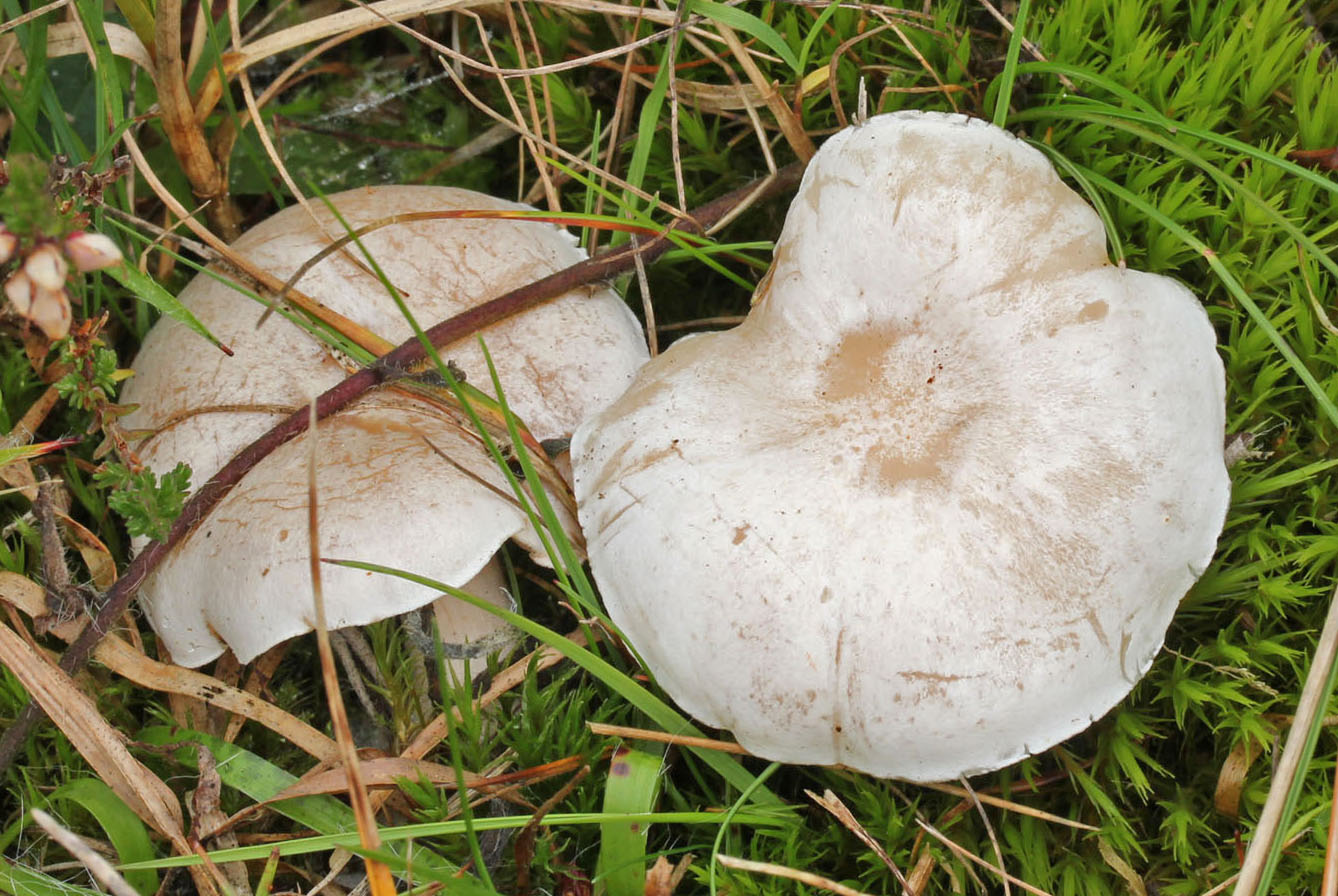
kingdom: Fungi
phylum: Basidiomycota
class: Agaricomycetes
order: Agaricales
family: Tricholomataceae
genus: Clitocybe
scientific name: Clitocybe rivulosa
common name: eng-tragthat
